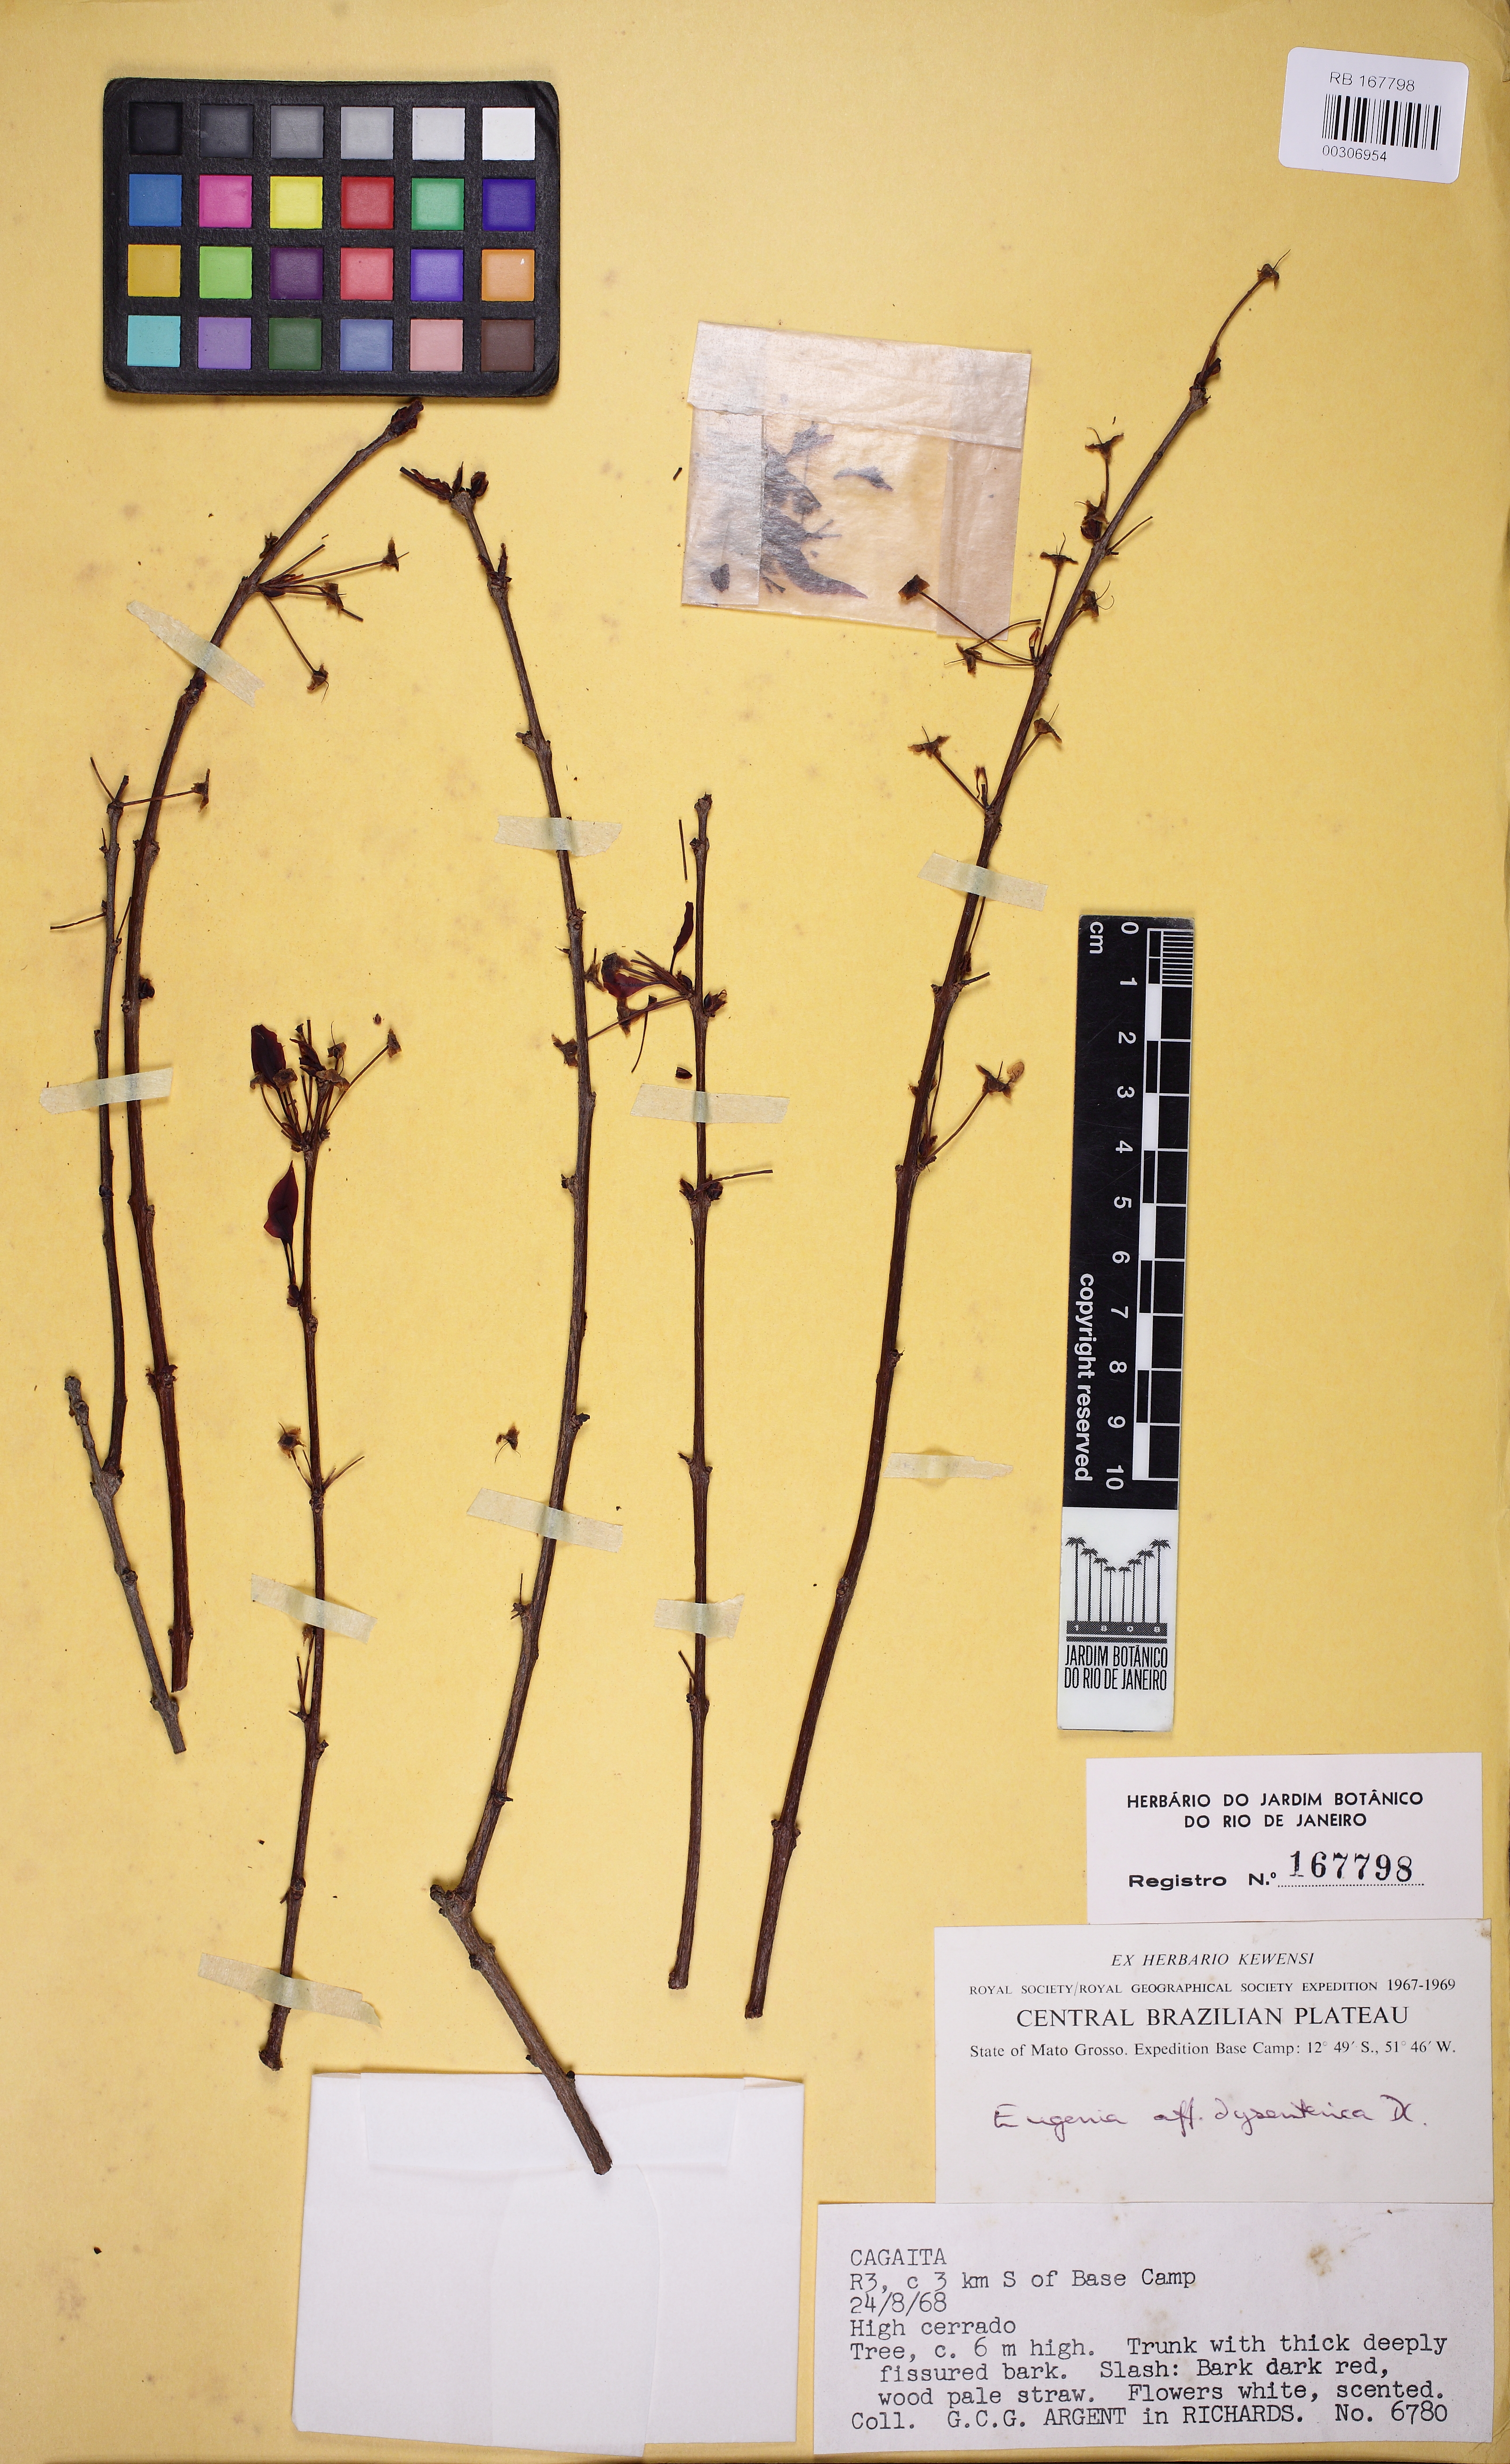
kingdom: Plantae
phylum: Tracheophyta
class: Magnoliopsida
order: Myrtales
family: Myrtaceae
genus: Eugenia
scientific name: Eugenia dysenterica
